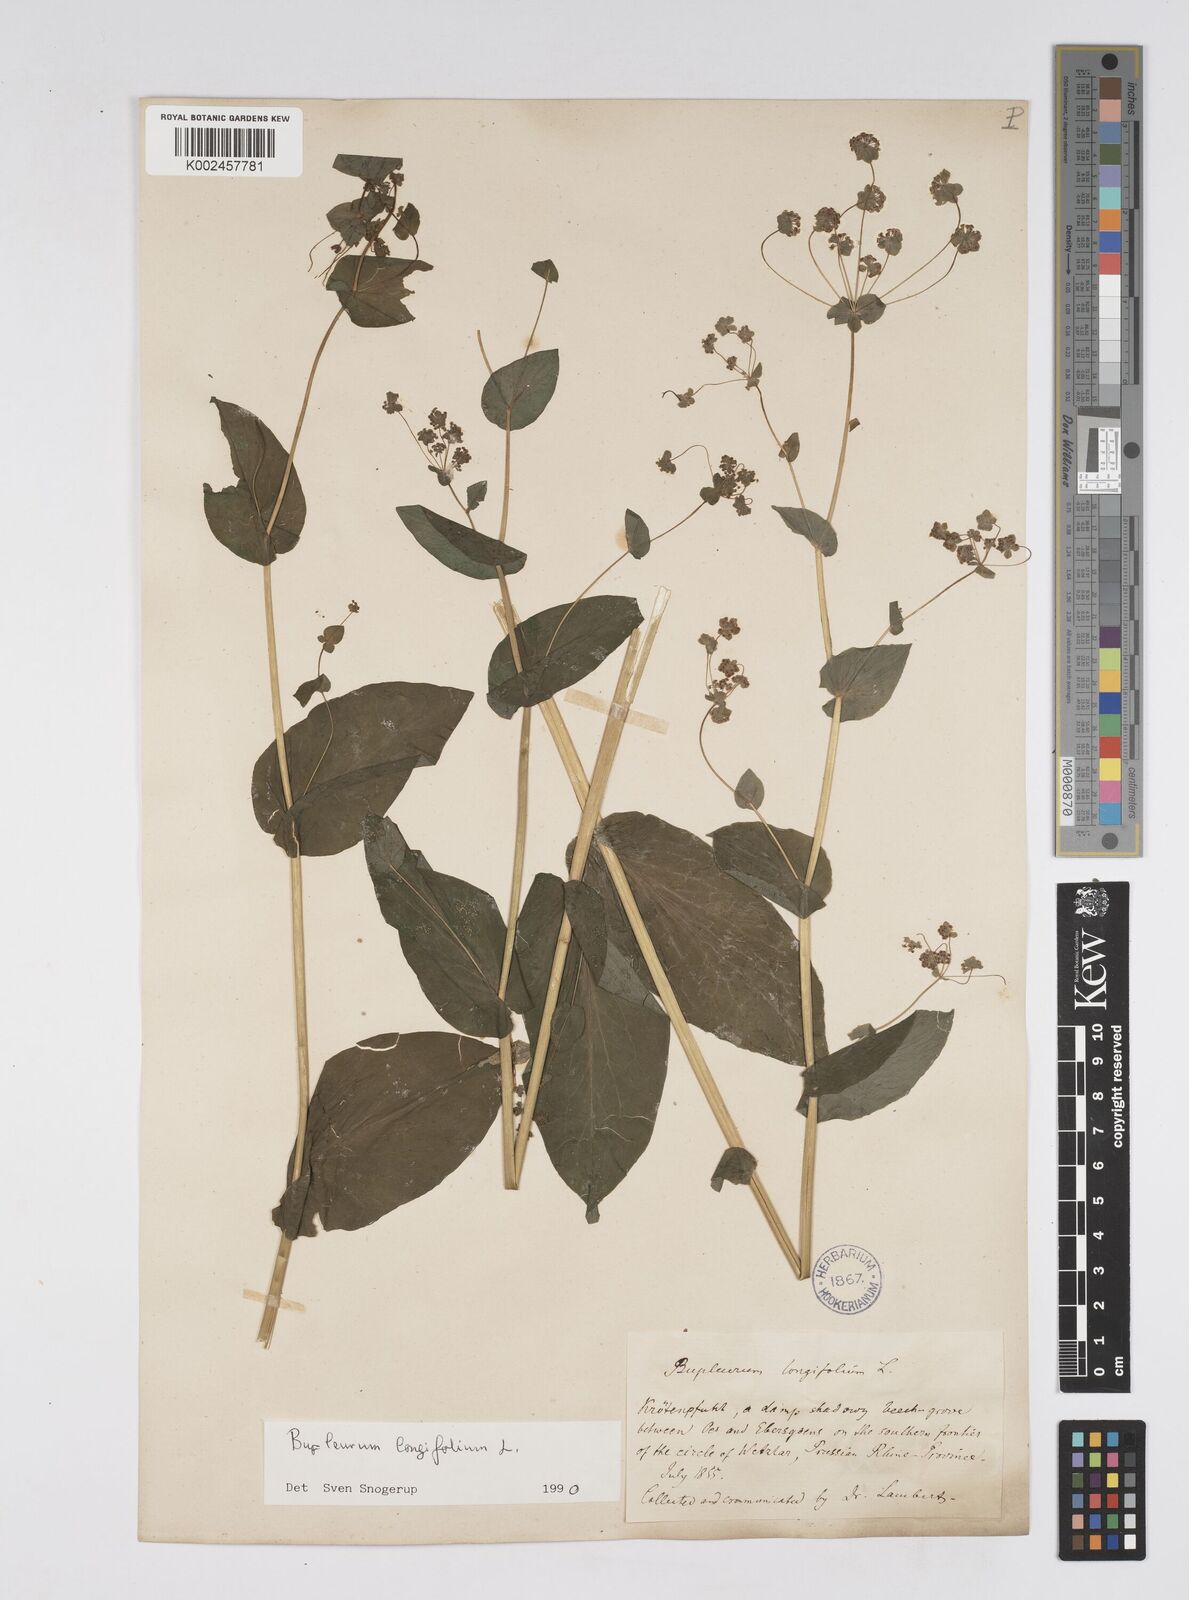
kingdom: Plantae
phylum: Tracheophyta
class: Magnoliopsida
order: Apiales
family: Apiaceae
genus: Bupleurum
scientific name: Bupleurum longifolium
